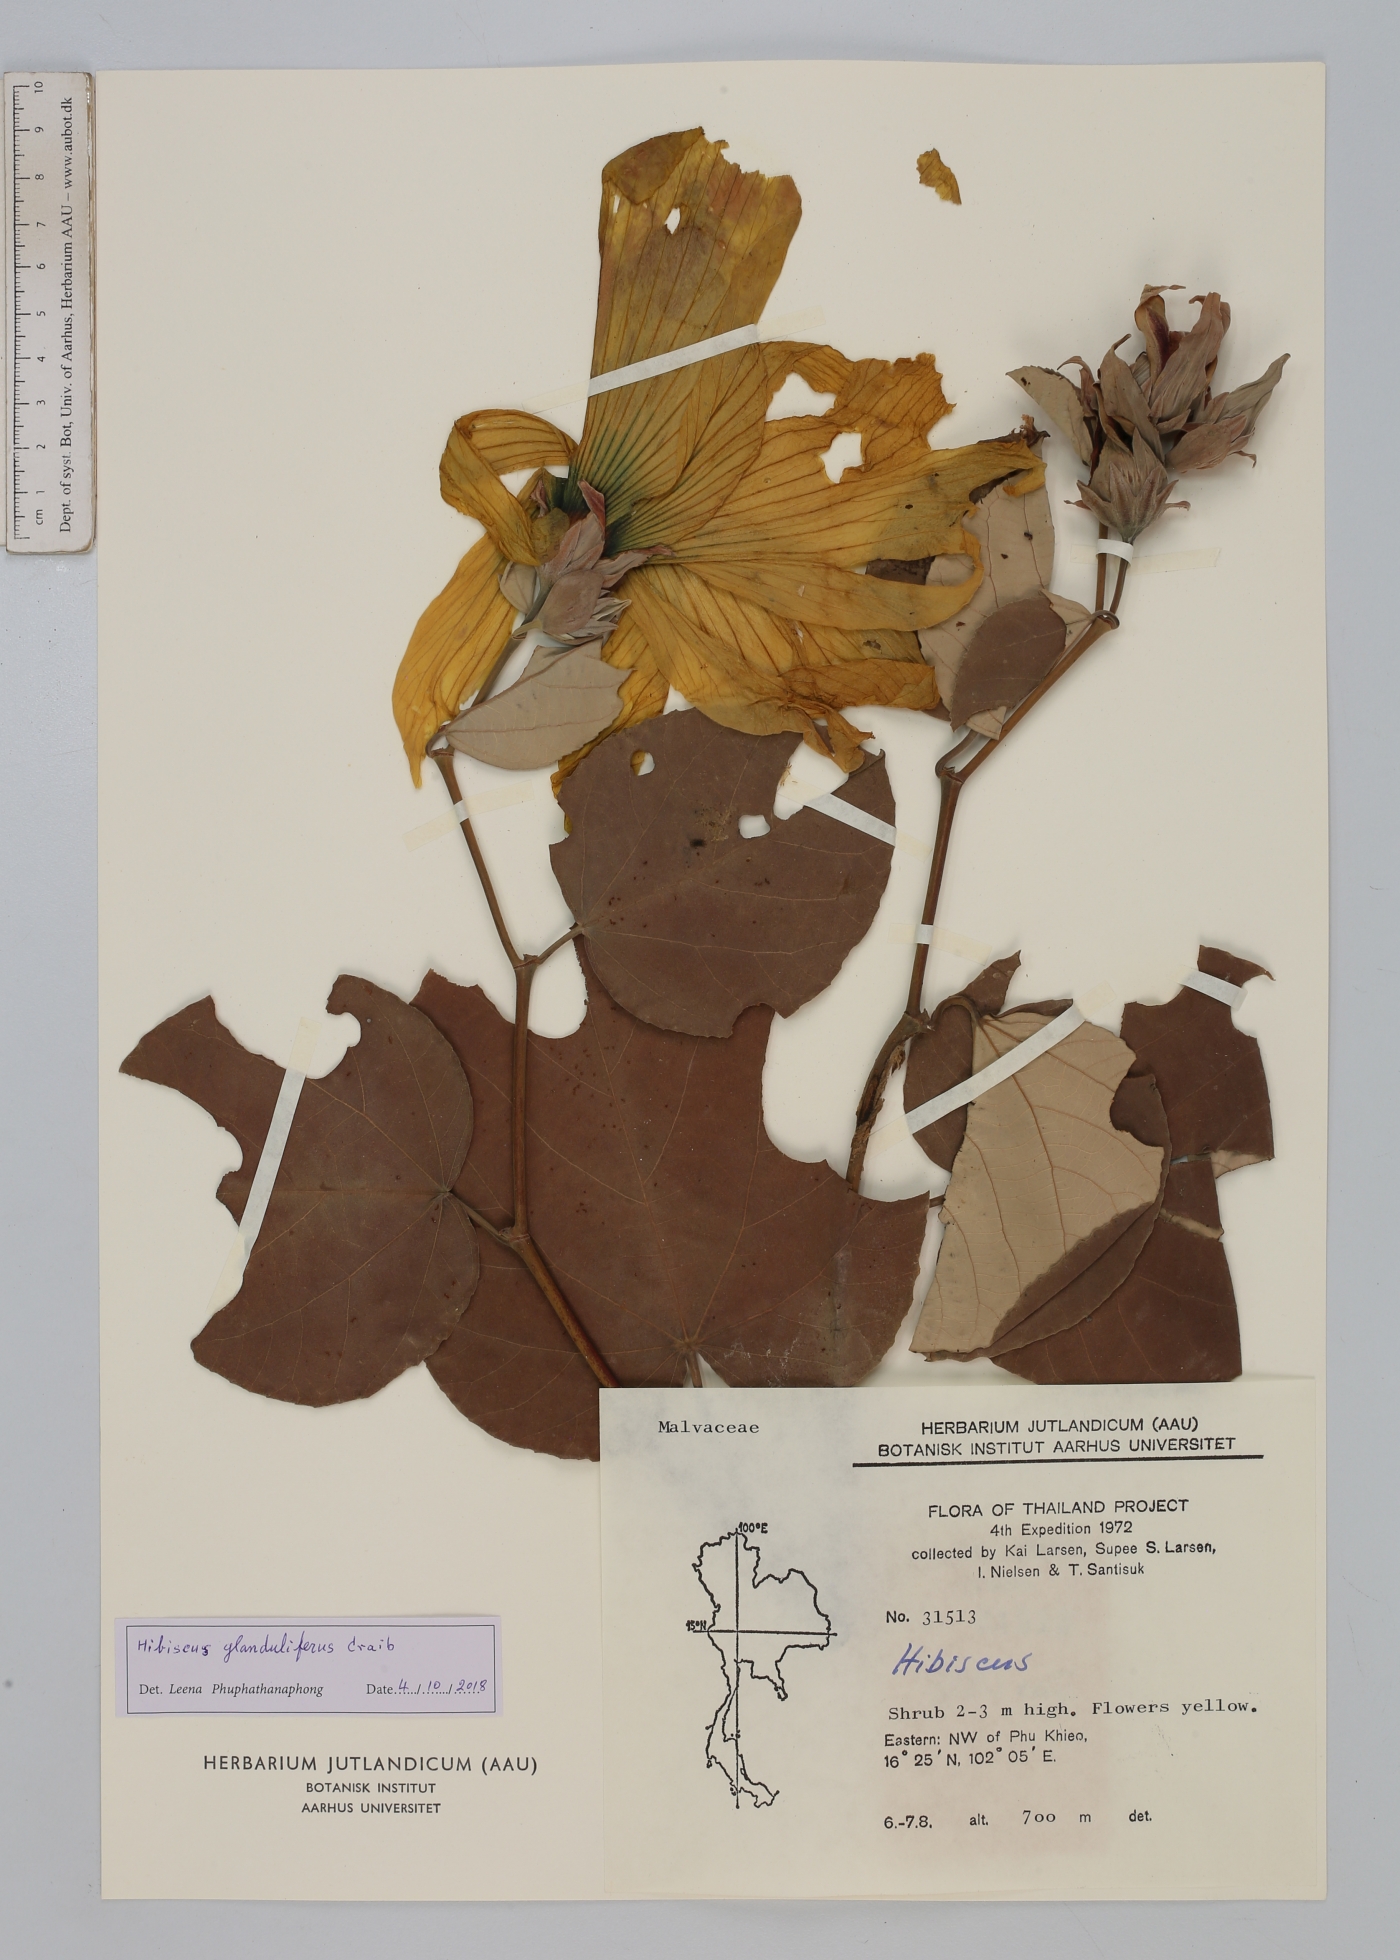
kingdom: Plantae
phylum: Tracheophyta
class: Magnoliopsida
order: Malvales
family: Malvaceae
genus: Hibiscus
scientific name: Hibiscus glanduliferus
